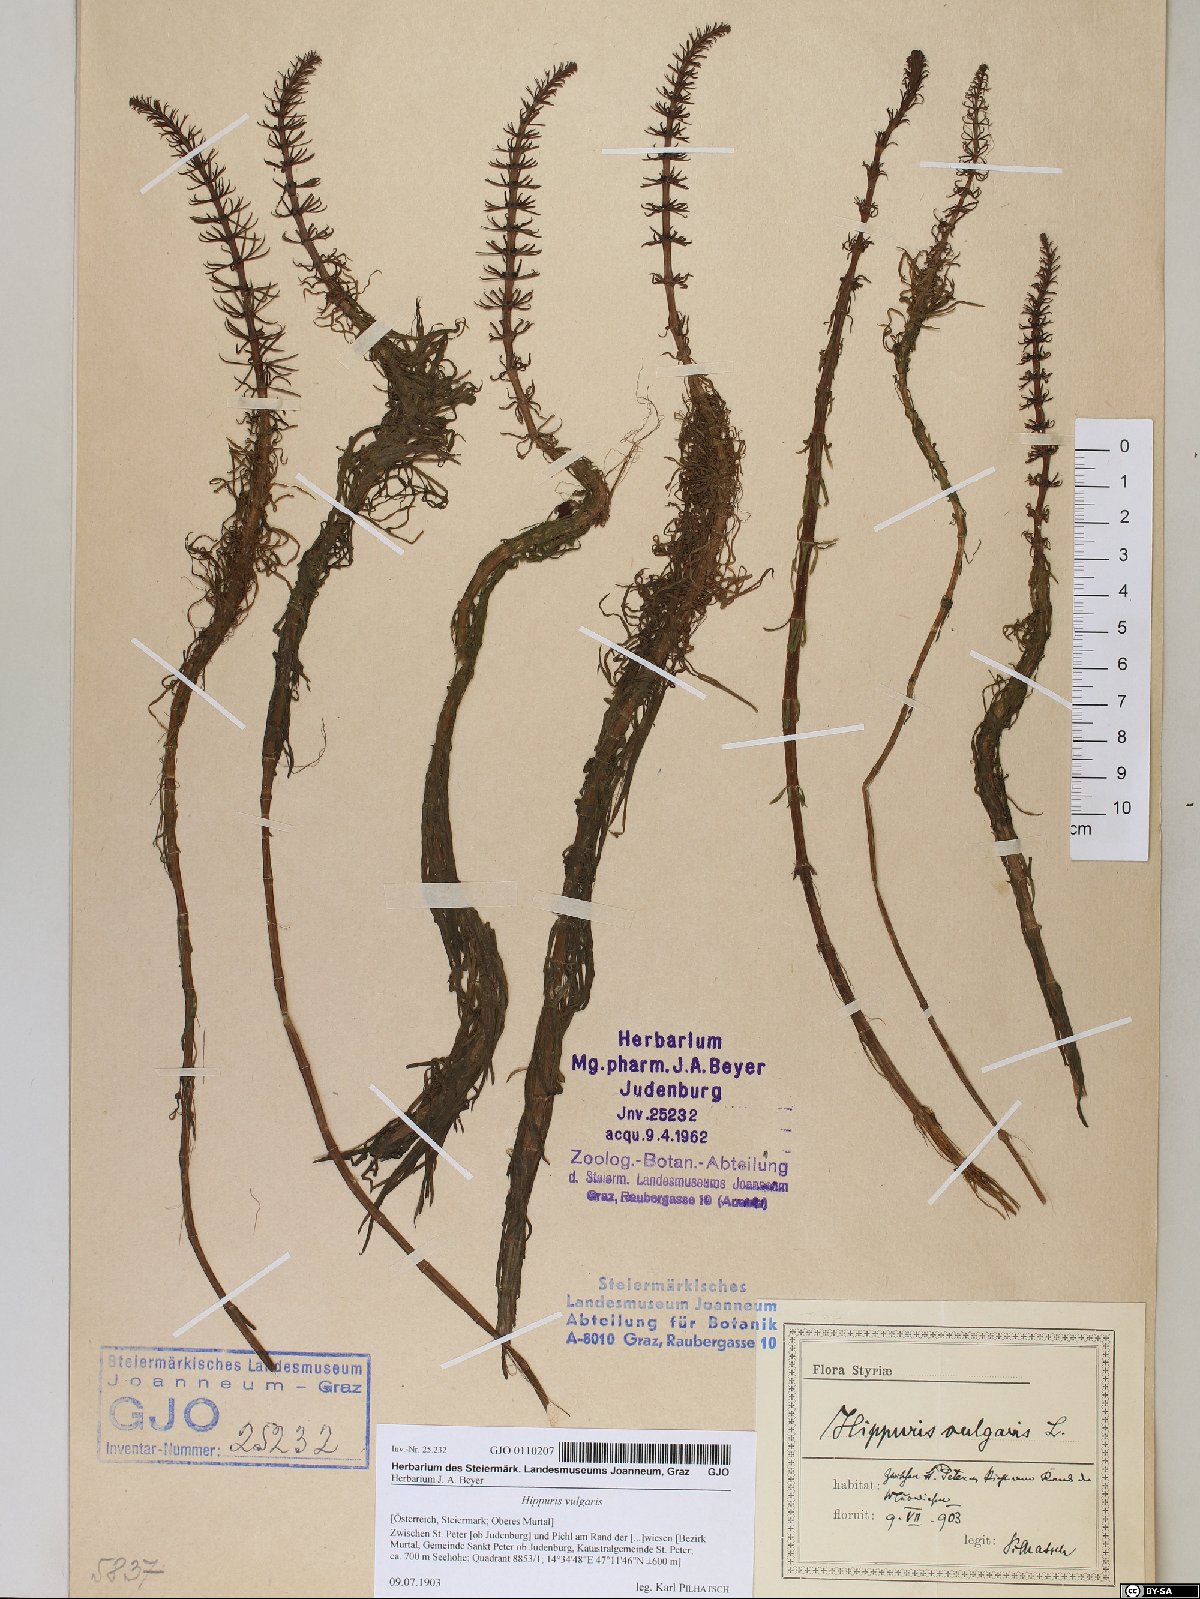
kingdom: Plantae
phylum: Tracheophyta
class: Magnoliopsida
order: Lamiales
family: Plantaginaceae
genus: Hippuris
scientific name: Hippuris vulgaris
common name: Mare's-tail
